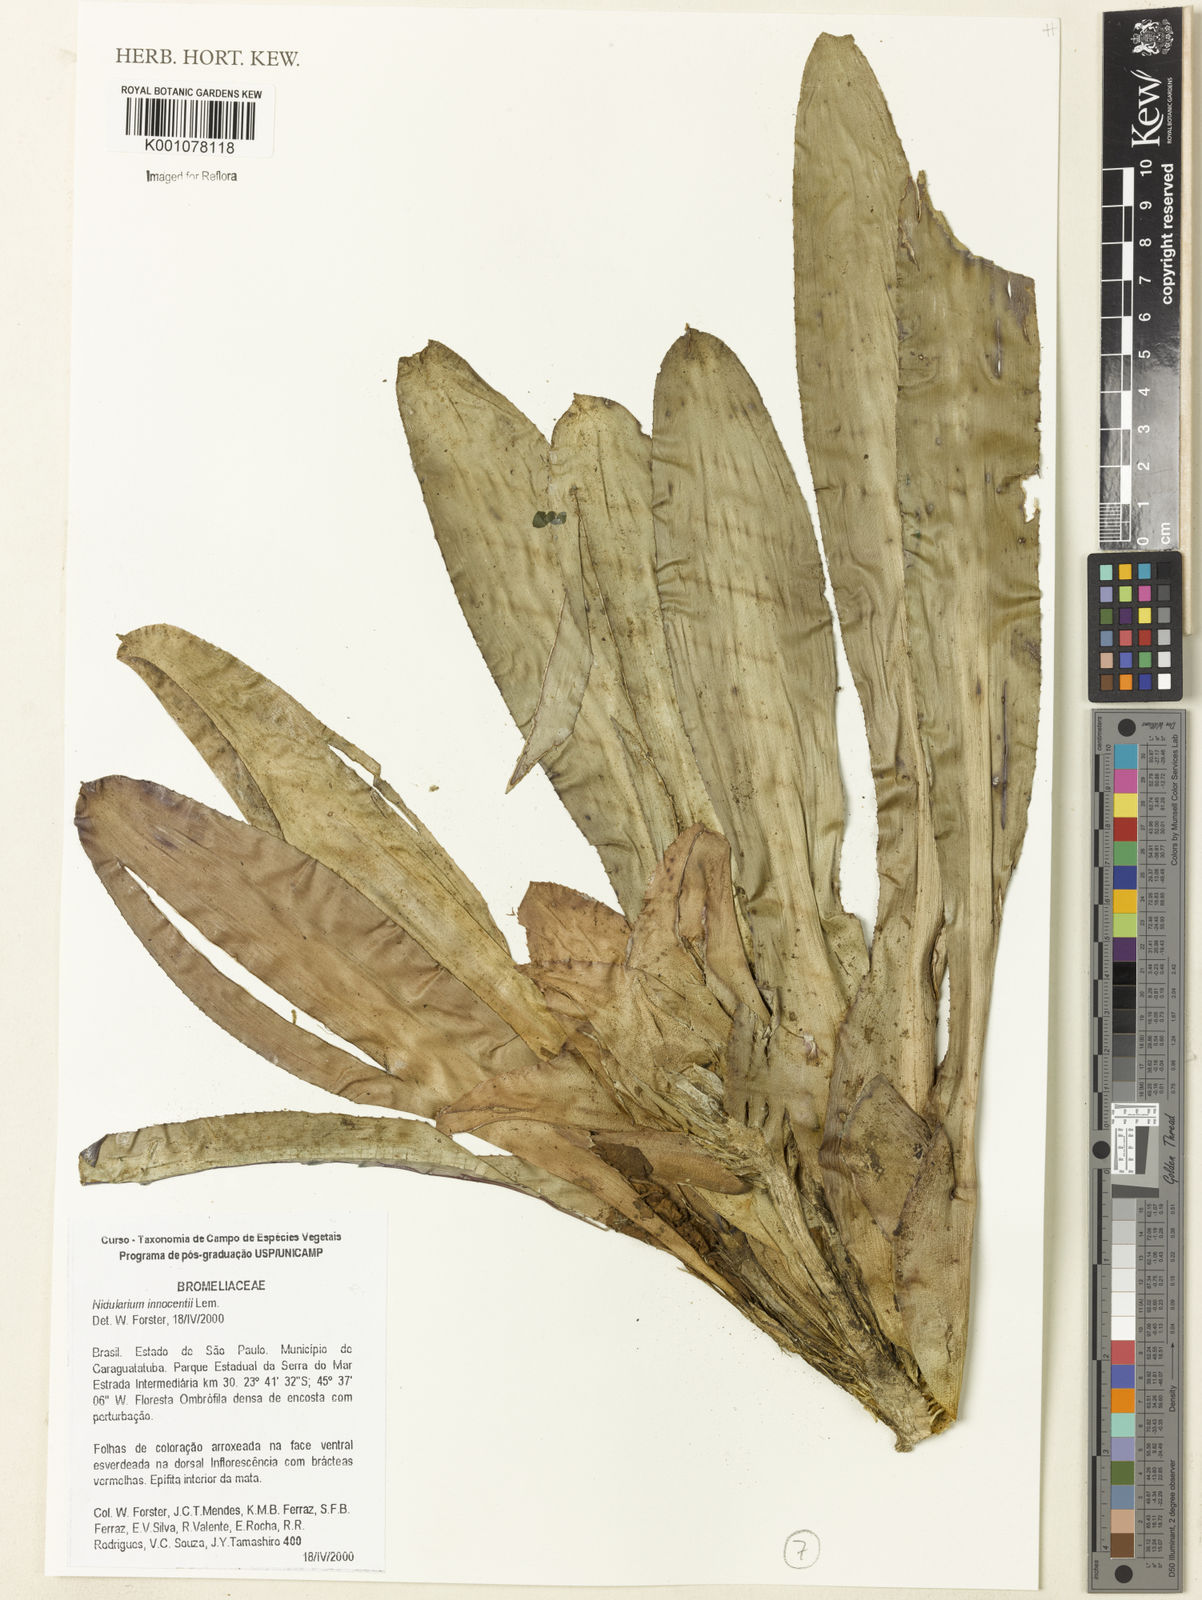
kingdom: Plantae
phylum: Tracheophyta
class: Liliopsida
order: Poales
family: Bromeliaceae
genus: Nidularium
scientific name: Nidularium innocentii
